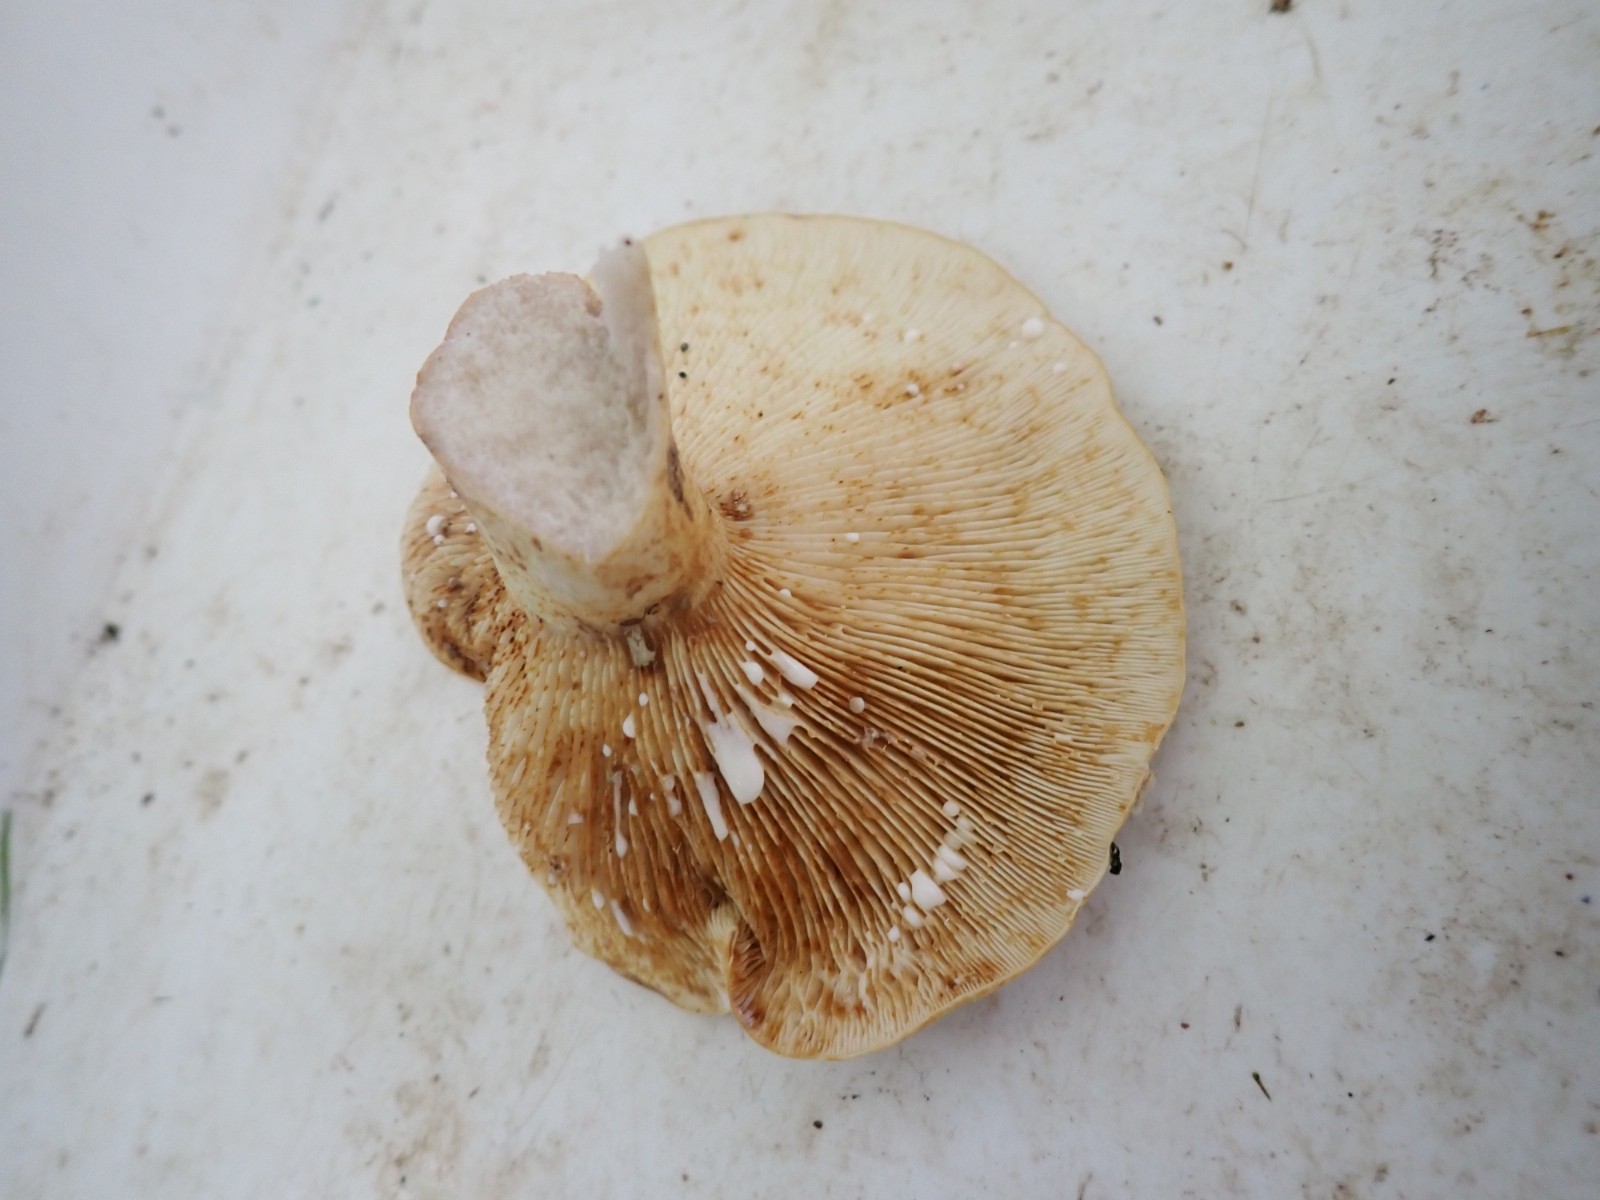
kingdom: Fungi
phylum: Basidiomycota
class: Agaricomycetes
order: Russulales
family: Russulaceae
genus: Lactifluus
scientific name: Lactifluus
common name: mælkehat
